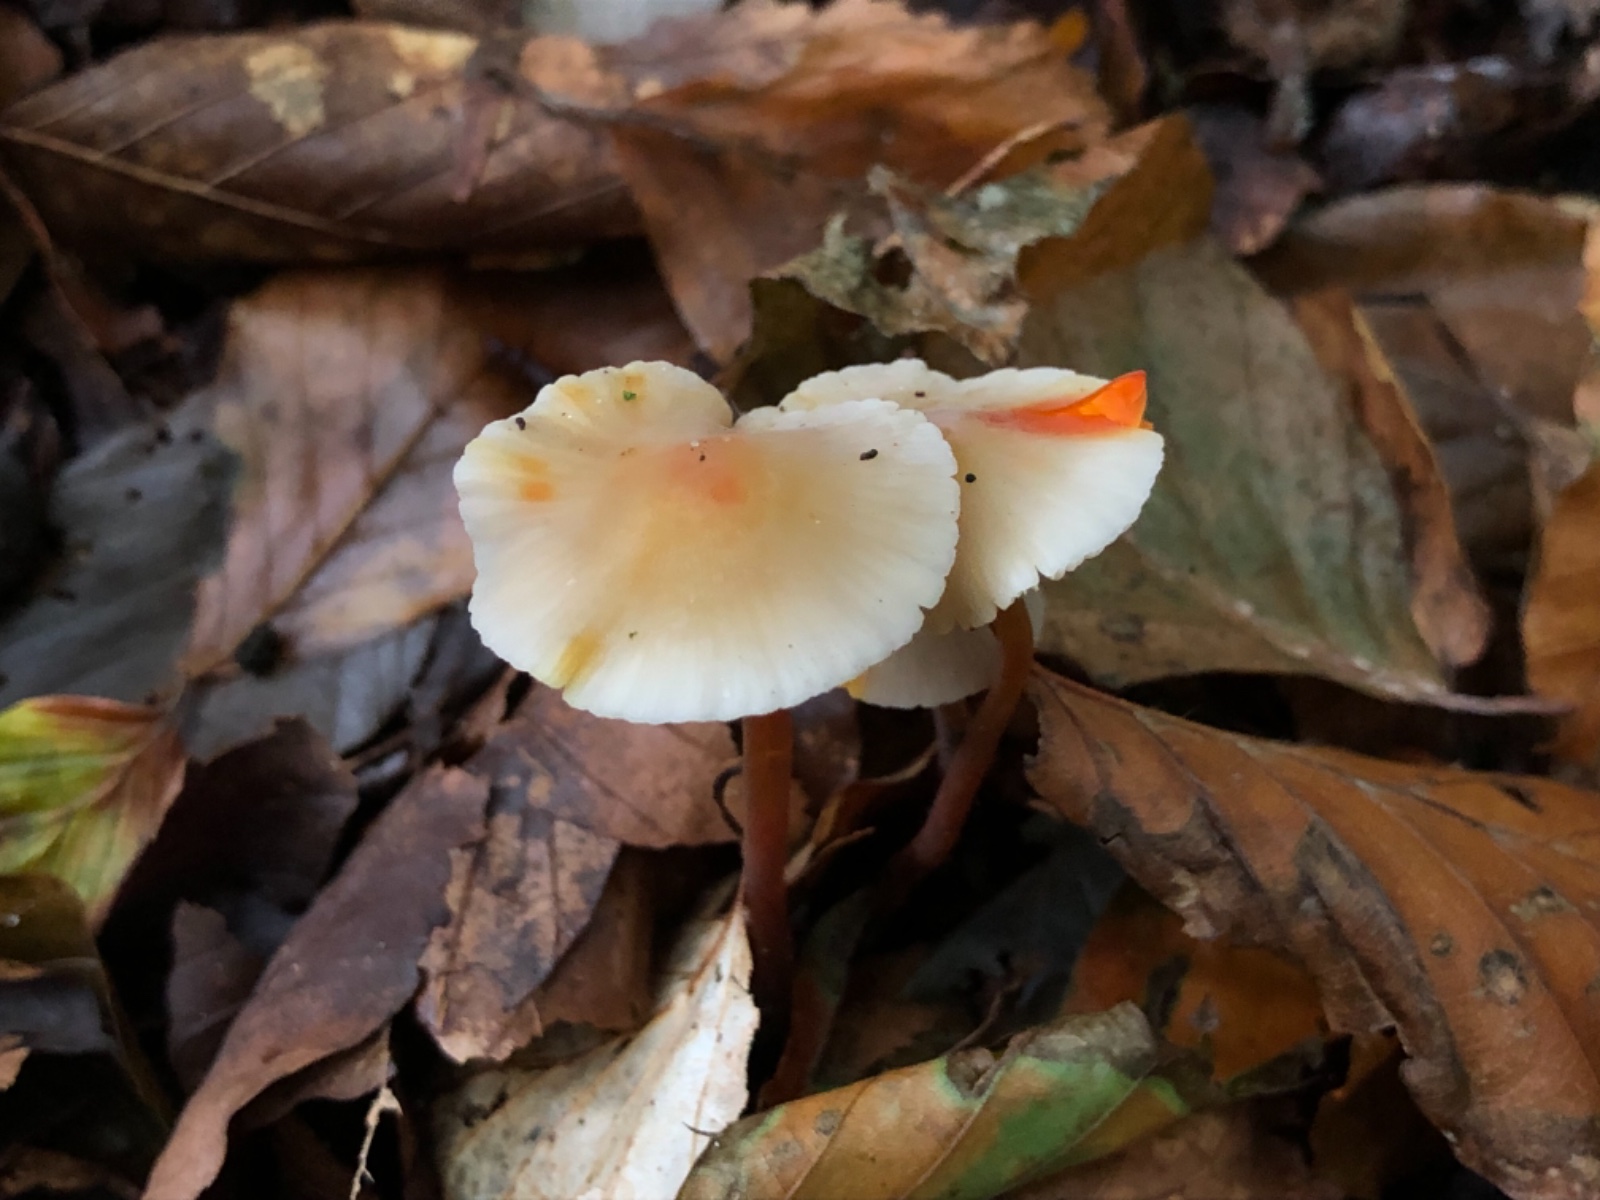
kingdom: Fungi
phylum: Basidiomycota
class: Agaricomycetes
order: Agaricales
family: Mycenaceae
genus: Mycena
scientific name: Mycena crocata
